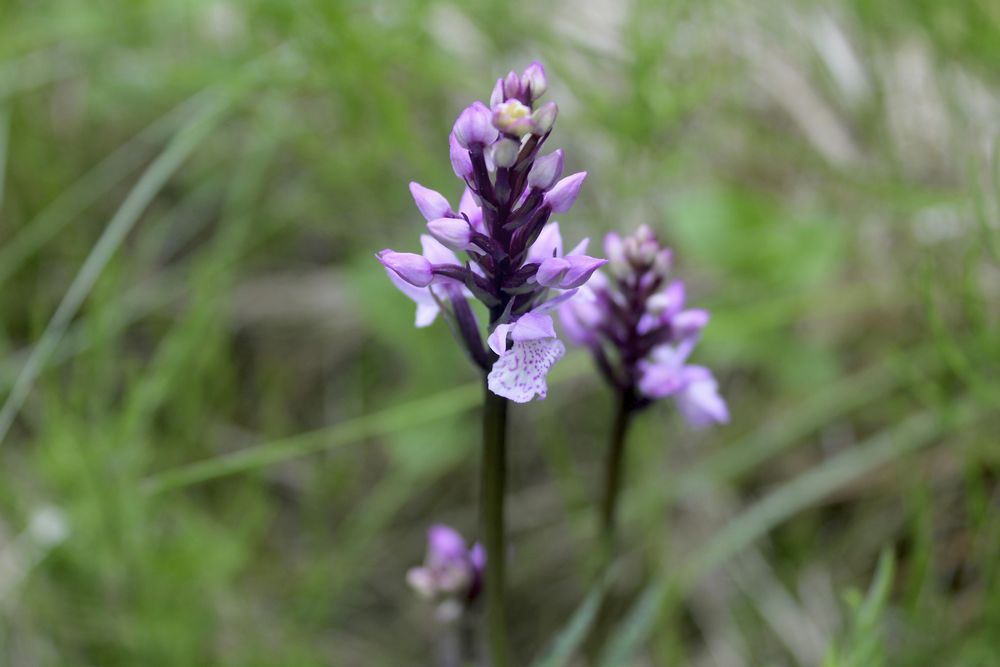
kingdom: Plantae
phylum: Tracheophyta
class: Liliopsida
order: Asparagales
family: Orchidaceae
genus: Dactylorhiza
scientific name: Dactylorhiza
